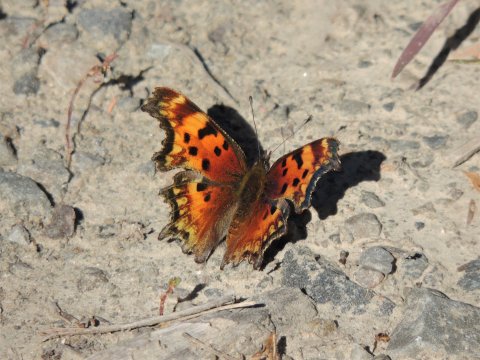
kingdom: Animalia
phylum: Arthropoda
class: Insecta
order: Lepidoptera
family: Nymphalidae
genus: Polygonia
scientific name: Polygonia gracilis
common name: Hoary Comma
